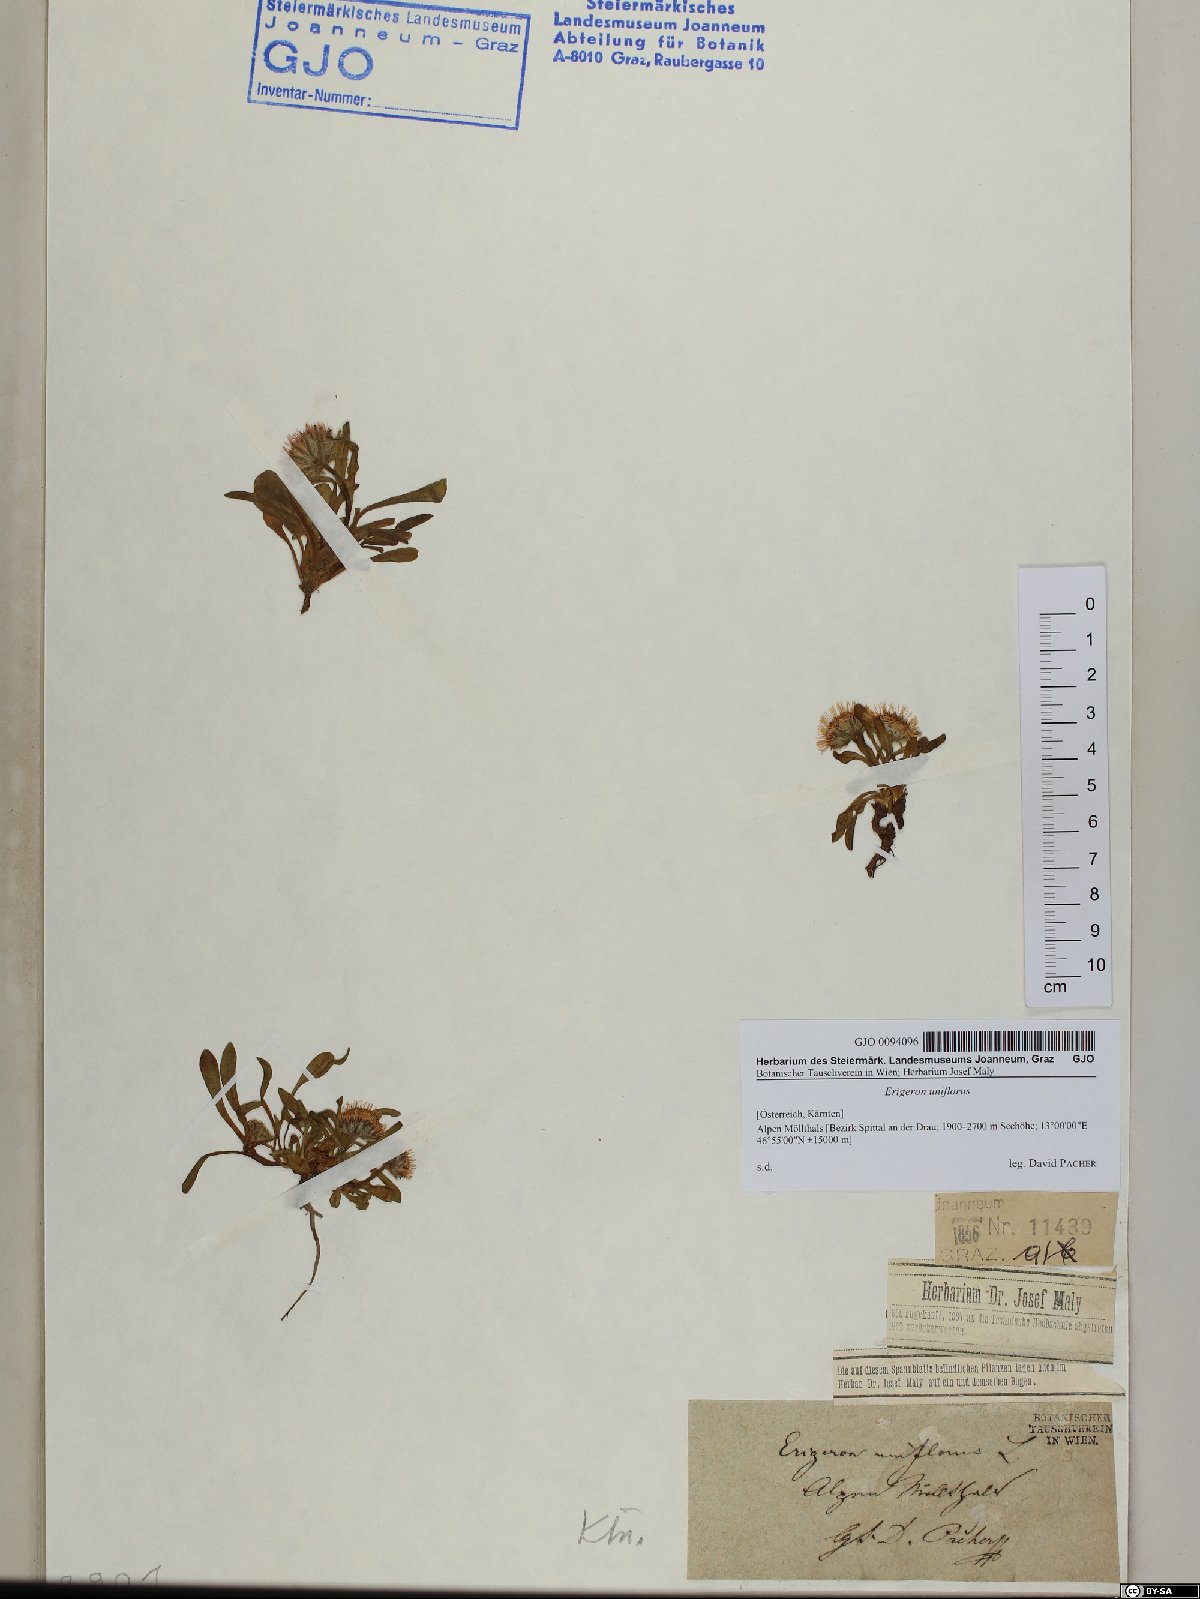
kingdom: Plantae
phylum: Tracheophyta
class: Magnoliopsida
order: Asterales
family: Asteraceae
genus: Erigeron
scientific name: Erigeron uniflorus
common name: Northern daisy
